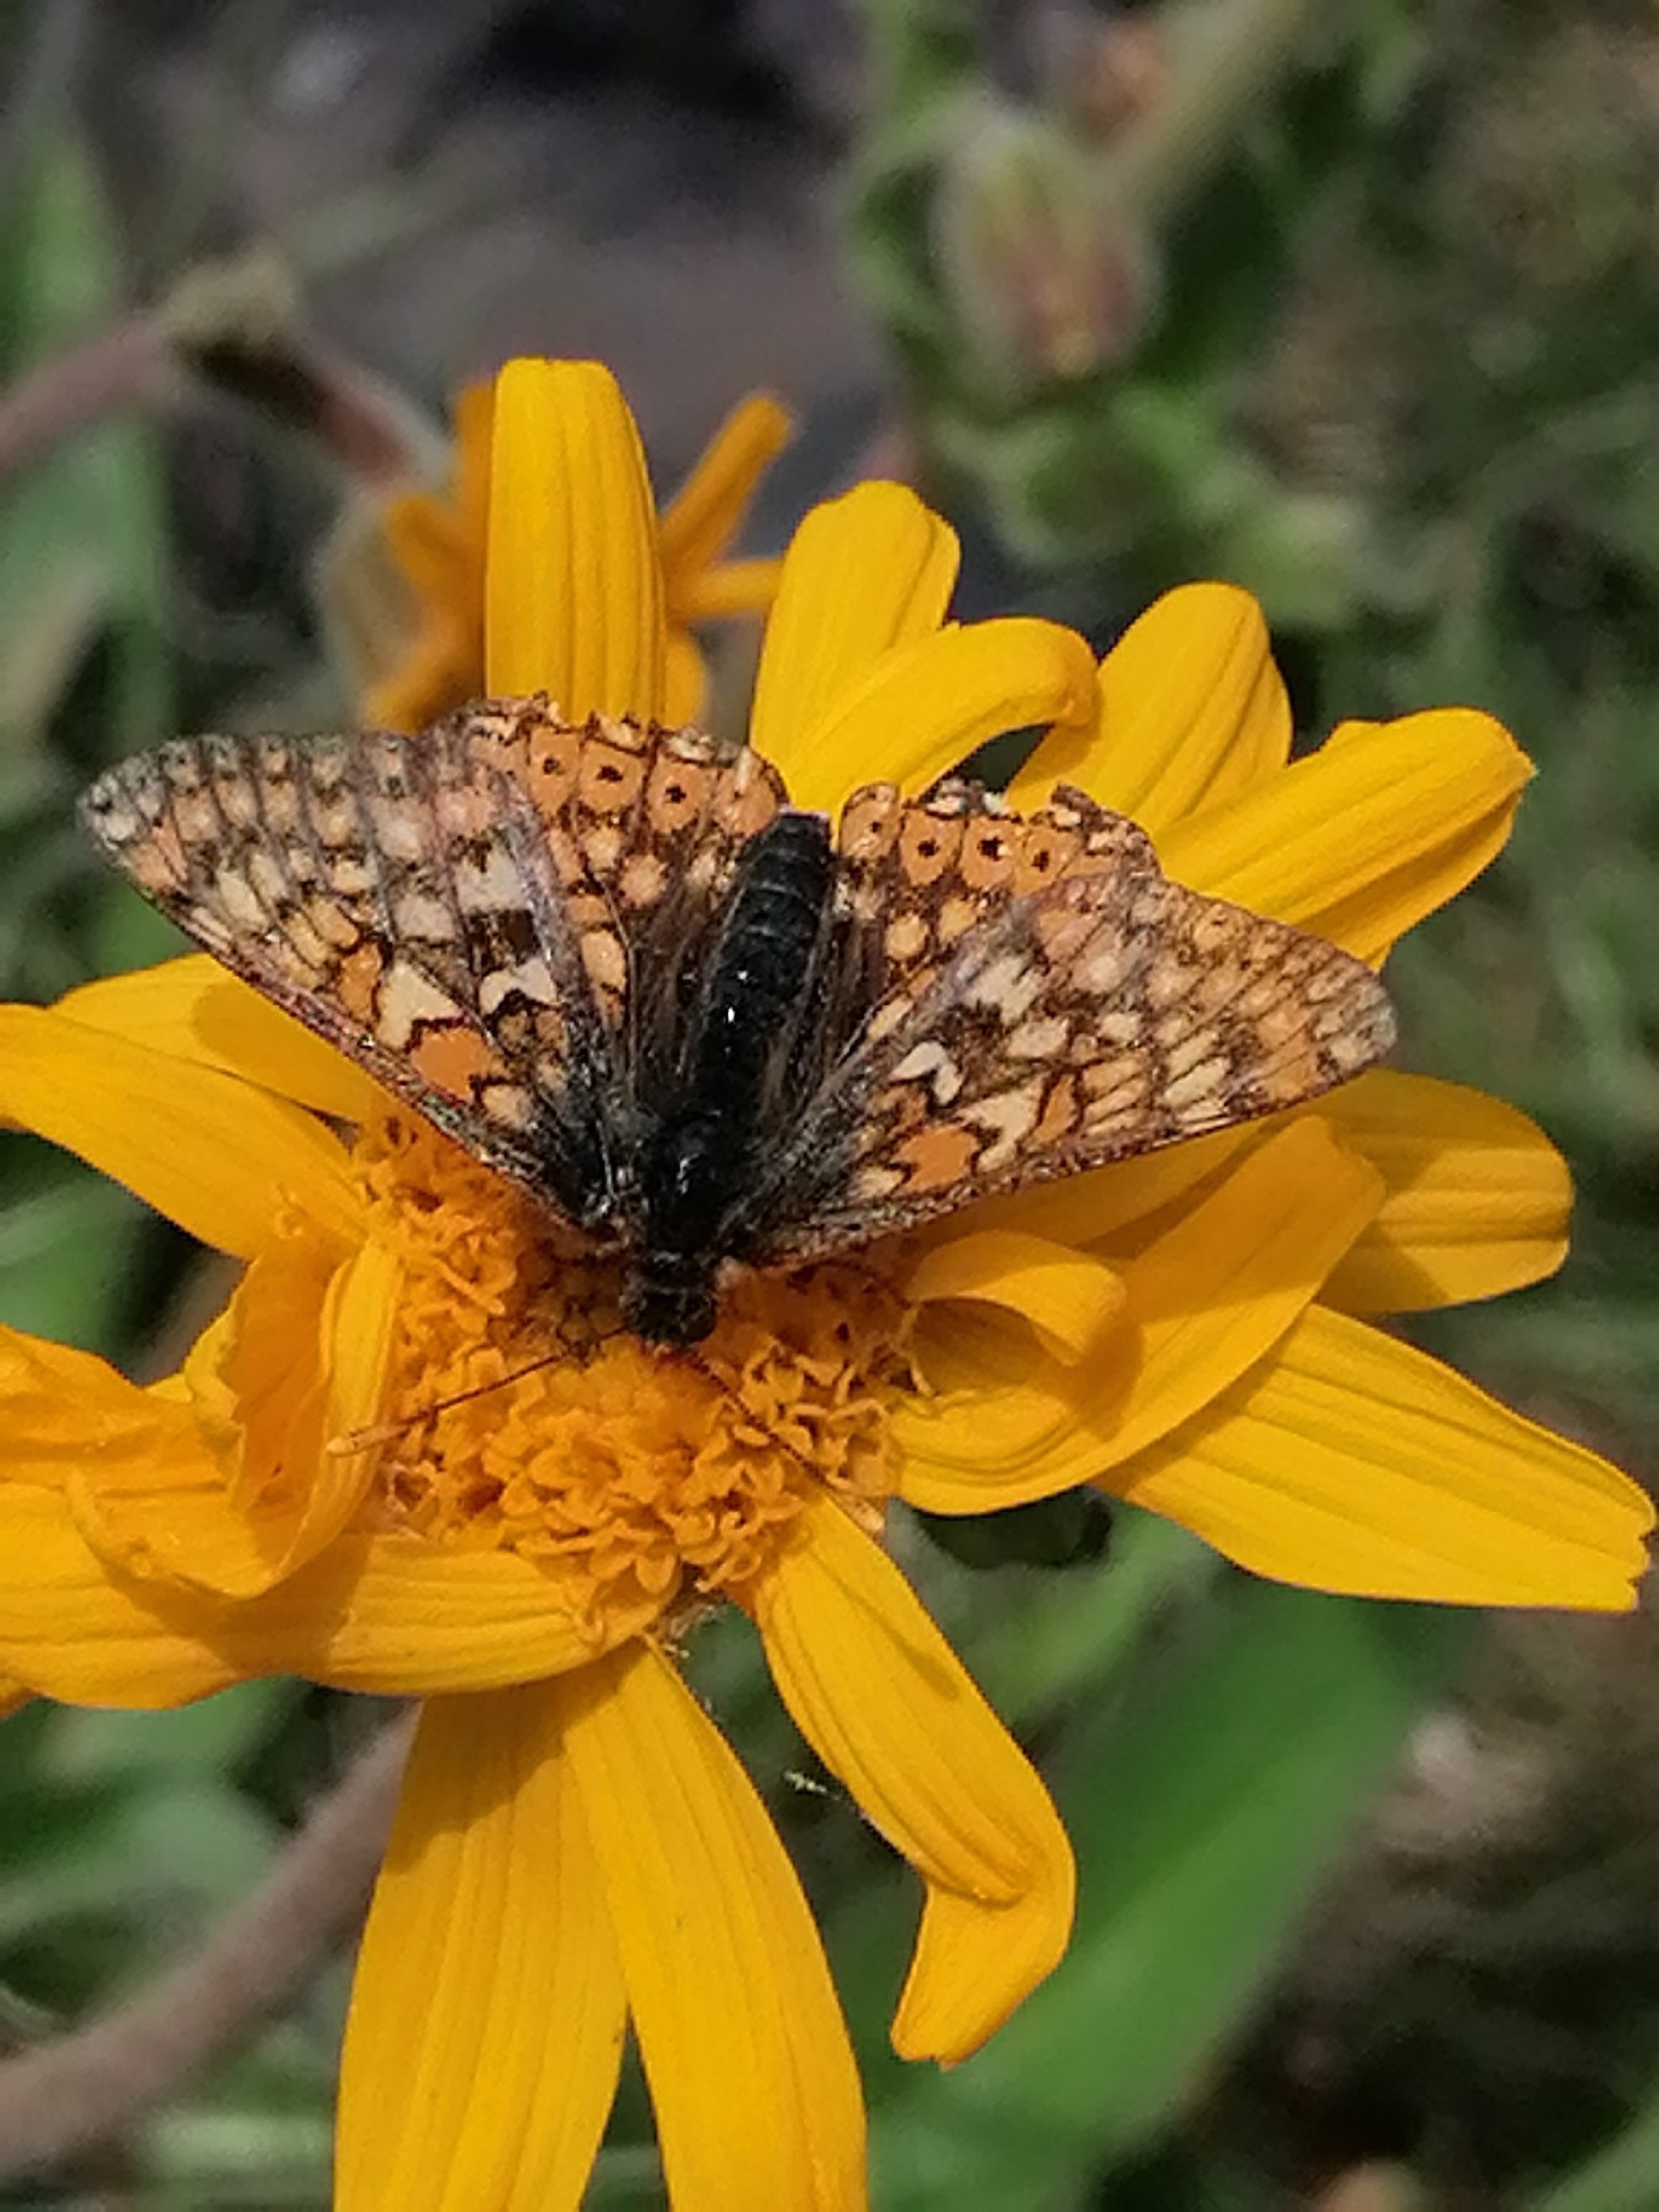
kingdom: Animalia
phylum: Arthropoda
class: Insecta
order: Lepidoptera
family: Nymphalidae
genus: Euphydryas
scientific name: Euphydryas aurinia
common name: Hedepletvinge
